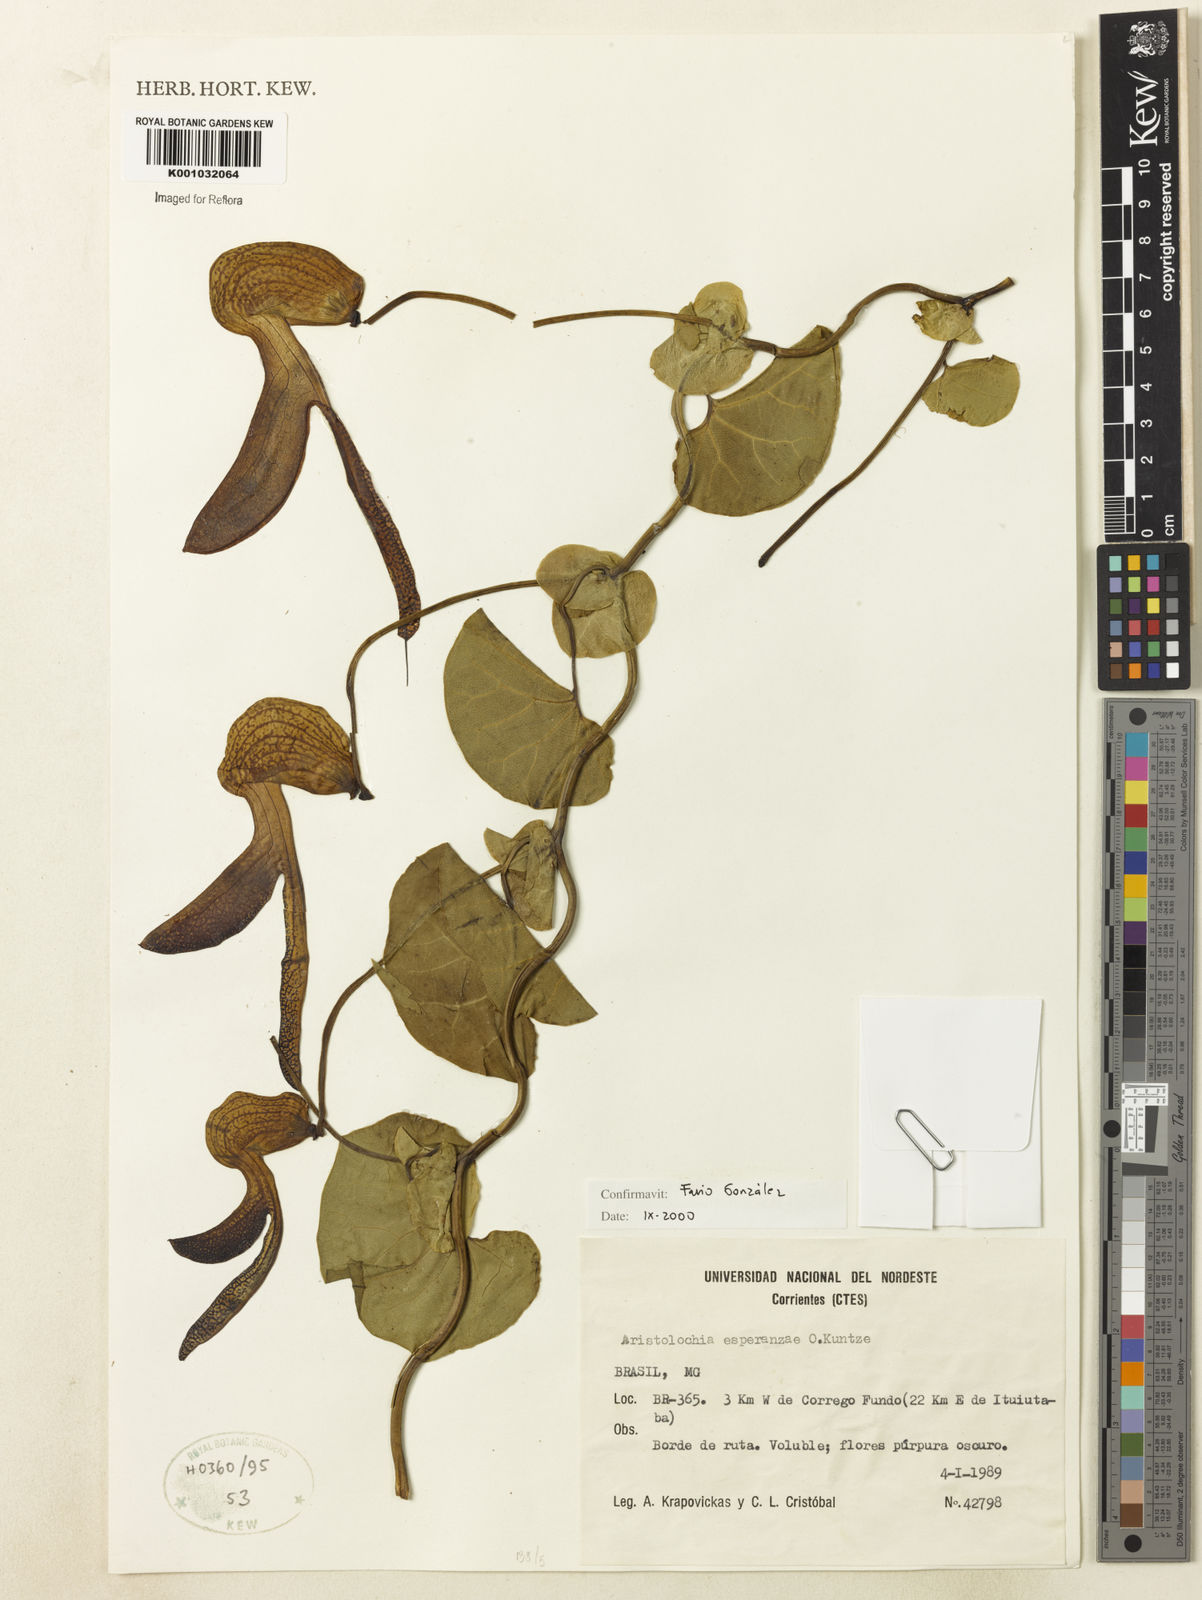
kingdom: Plantae
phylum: Tracheophyta
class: Magnoliopsida
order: Piperales
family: Aristolochiaceae
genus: Aristolochia
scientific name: Aristolochia
